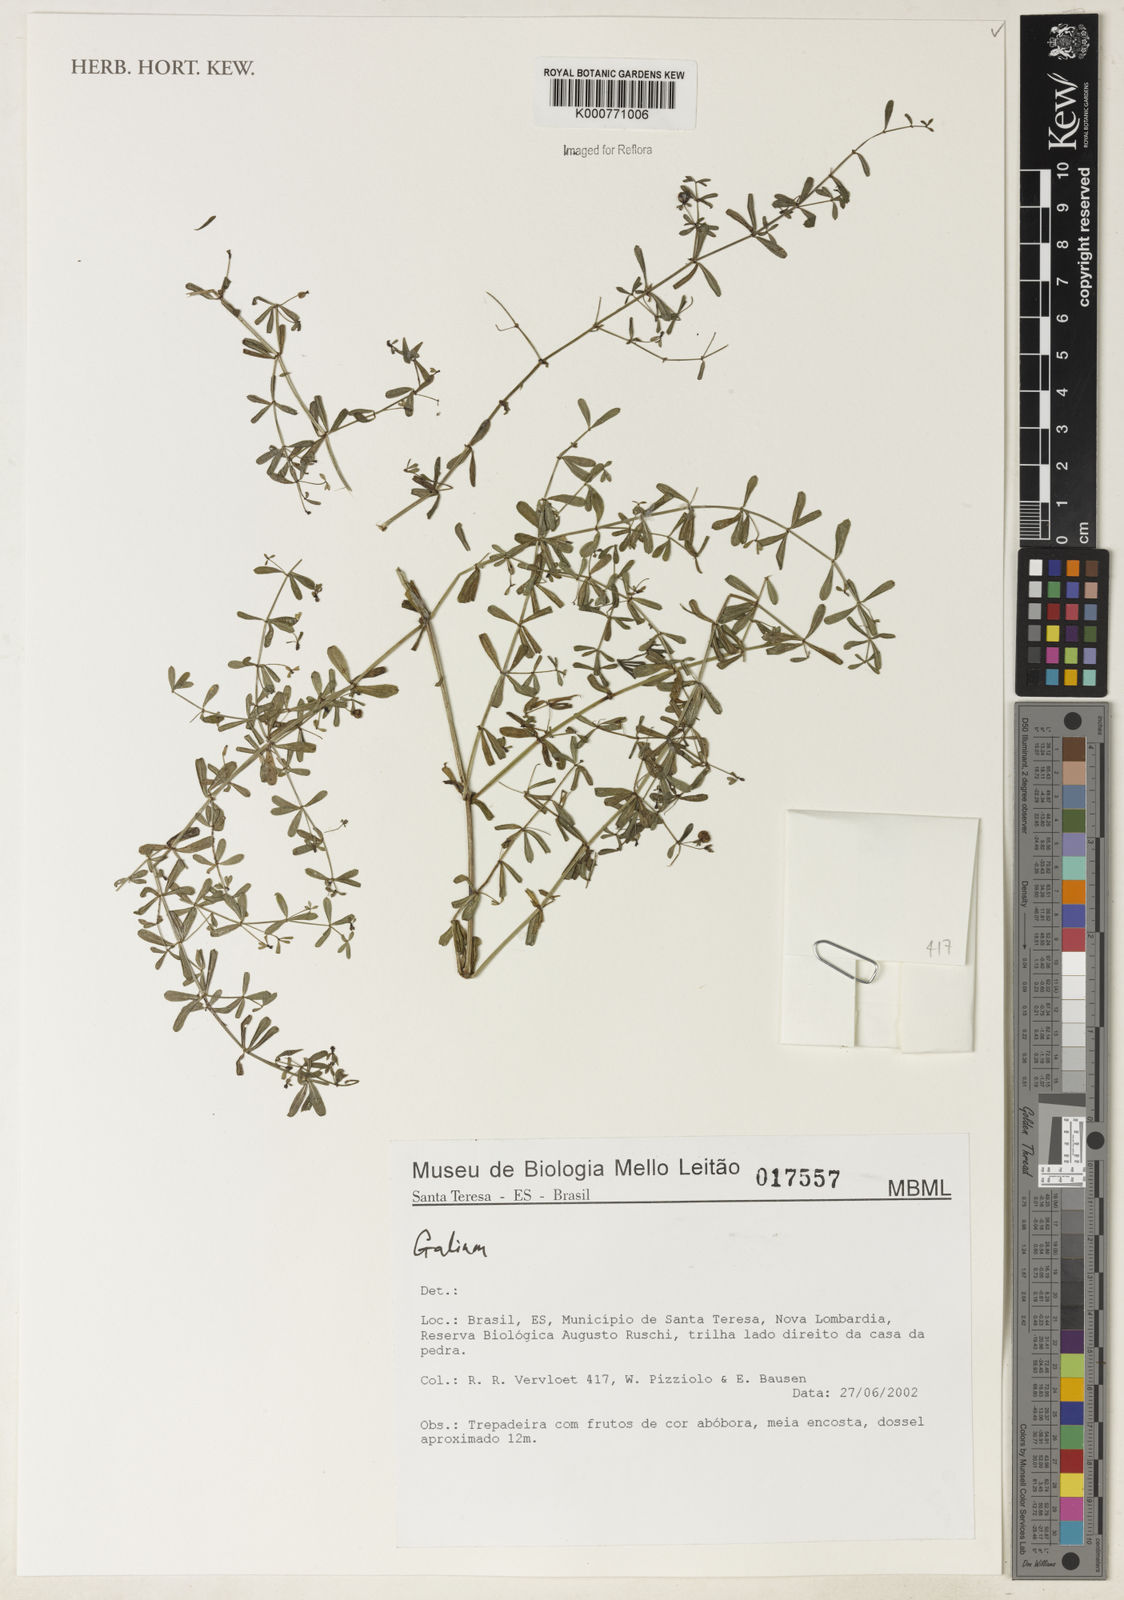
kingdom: Plantae
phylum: Tracheophyta
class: Magnoliopsida
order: Gentianales
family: Rubiaceae
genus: Galium
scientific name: Galium
